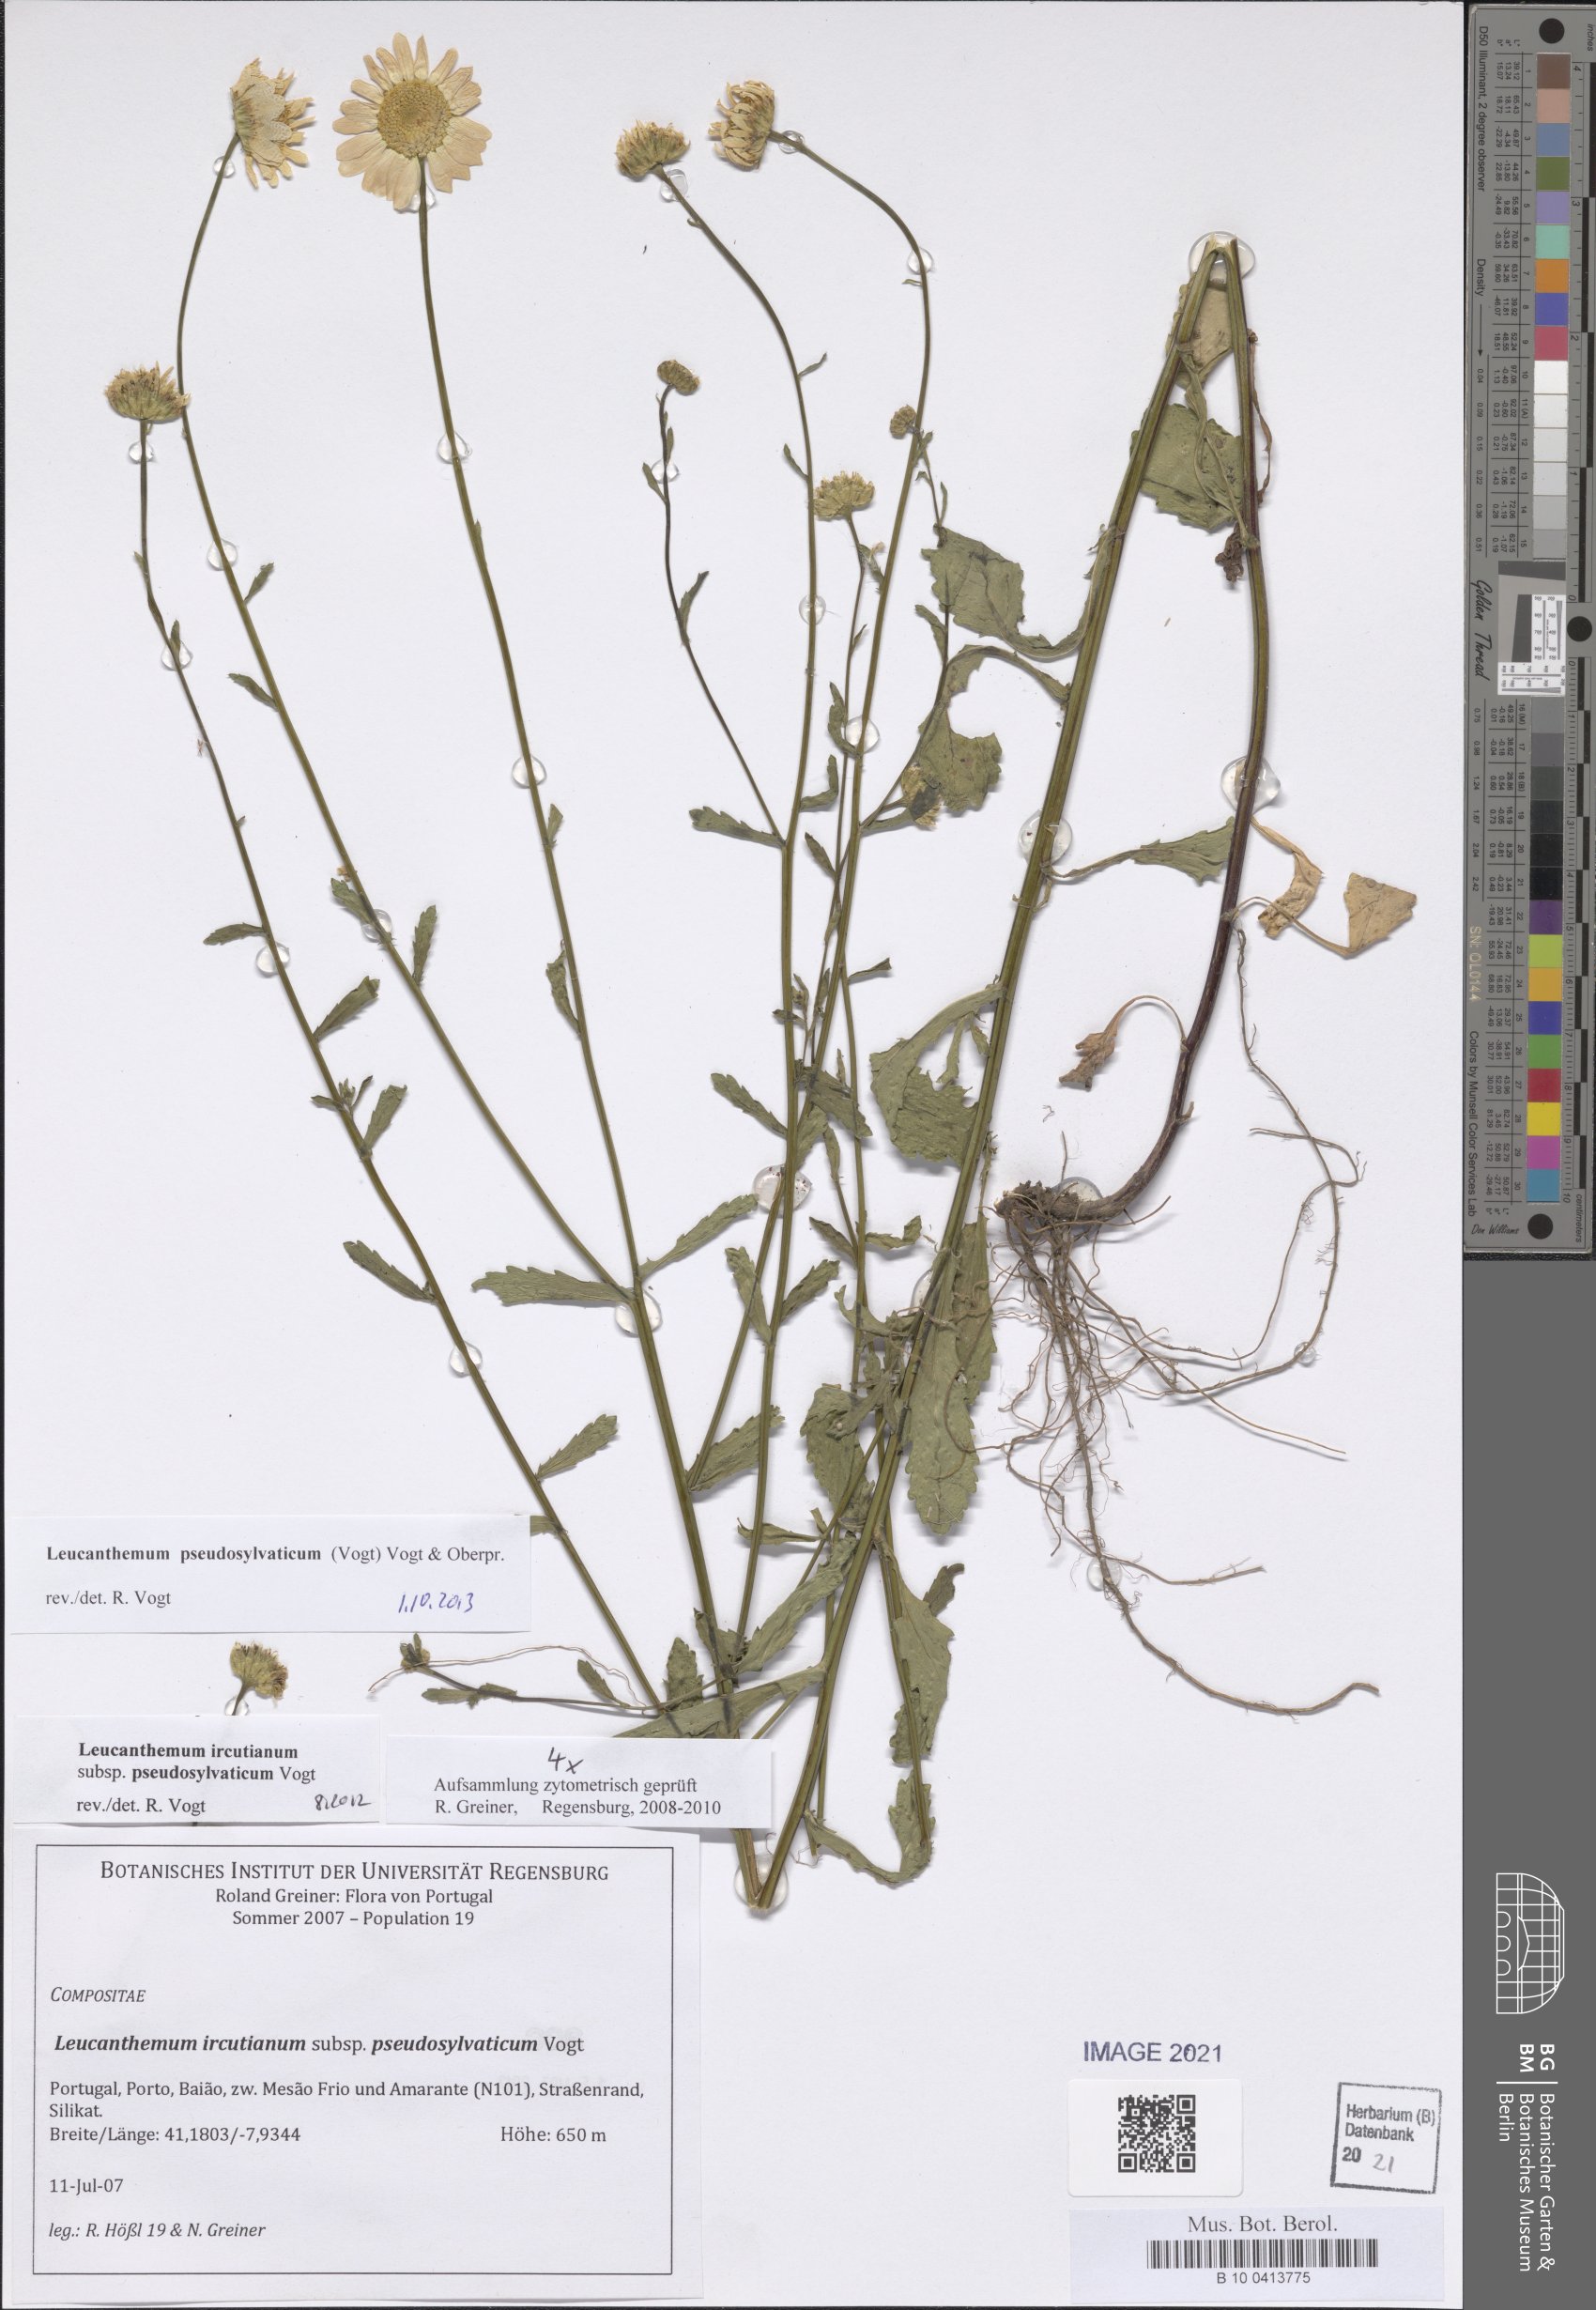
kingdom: Plantae
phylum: Tracheophyta
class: Magnoliopsida
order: Asterales
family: Asteraceae
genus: Leucanthemum
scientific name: Leucanthemum pseudosylvaticum
